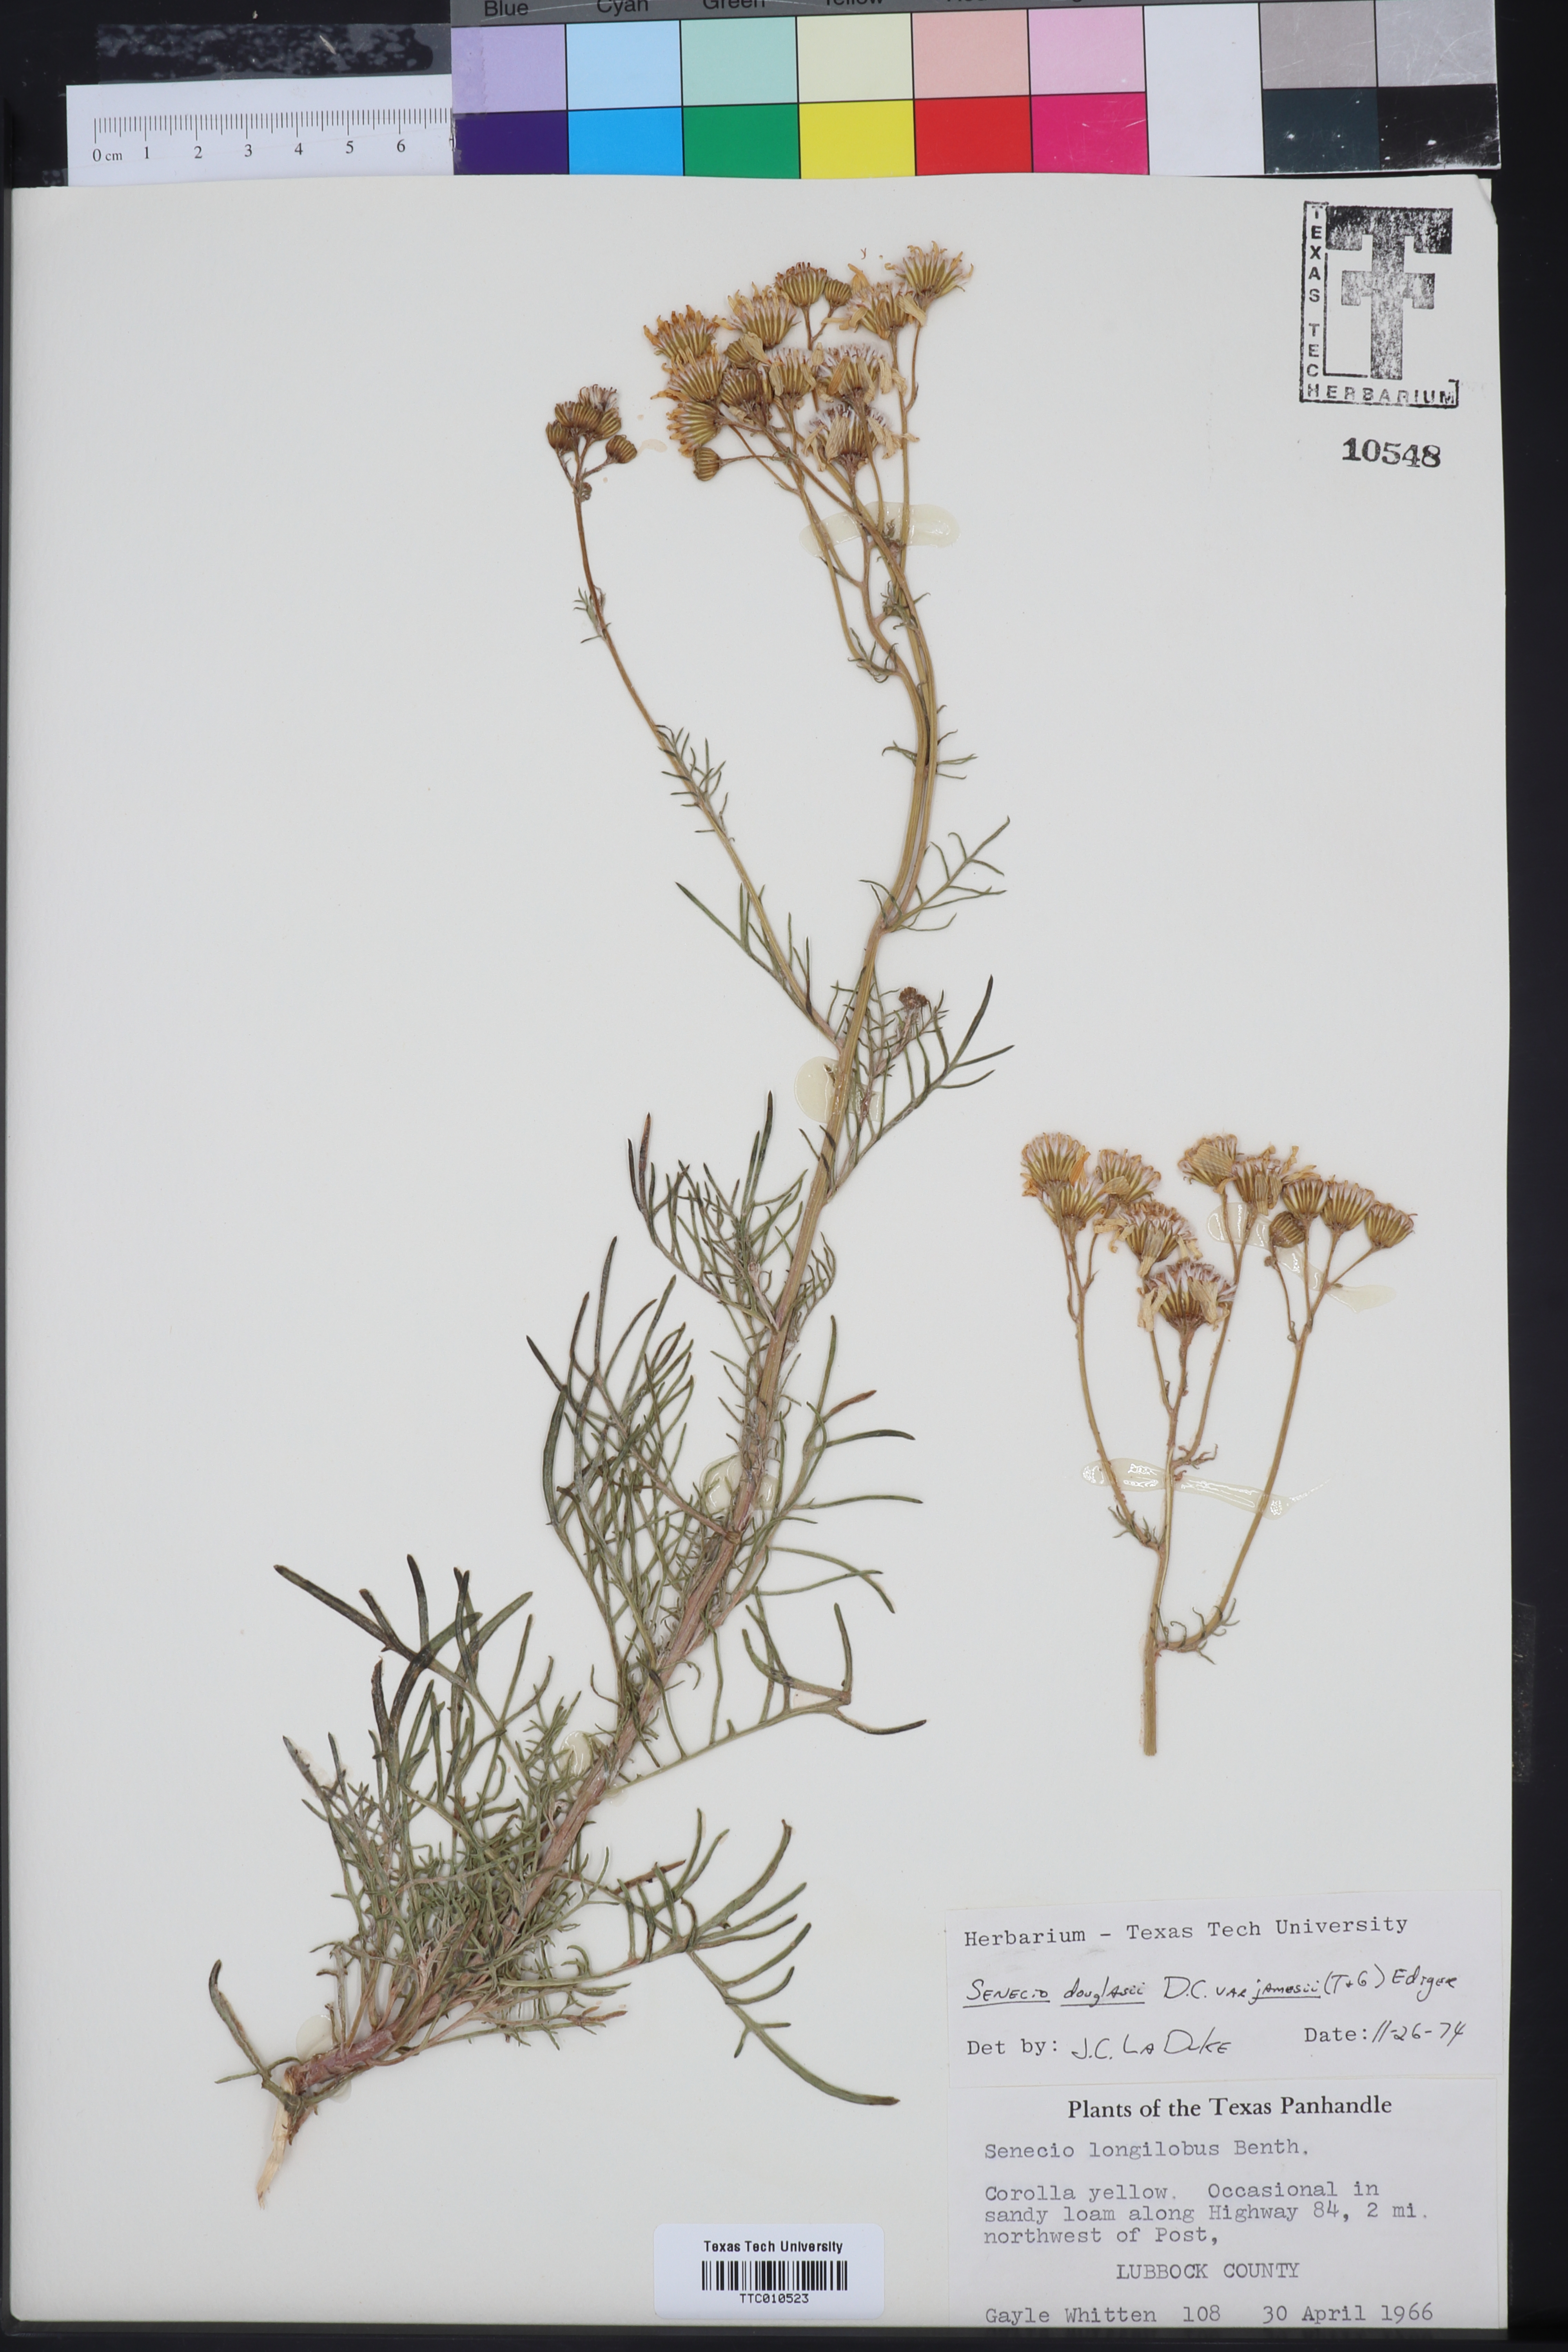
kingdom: Plantae
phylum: Tracheophyta
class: Magnoliopsida
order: Asterales
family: Asteraceae
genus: Senecio
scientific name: Senecio flaccidus
